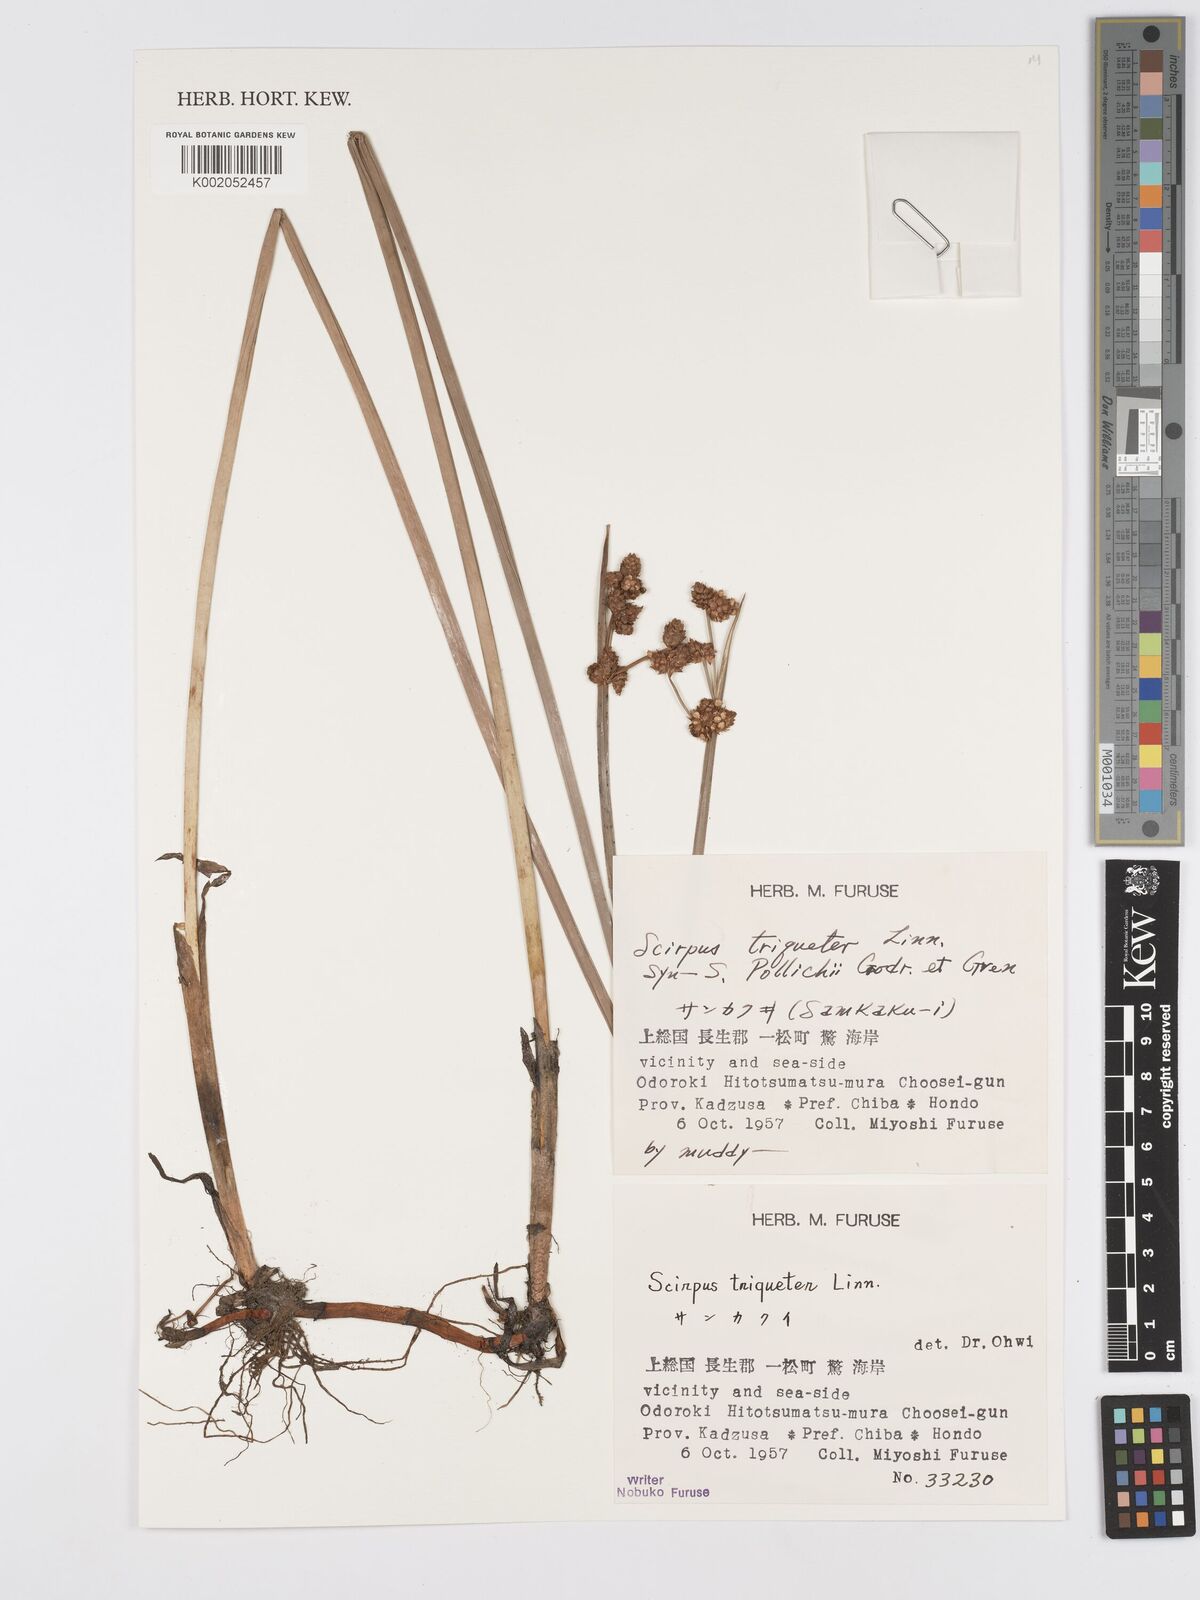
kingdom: Plantae
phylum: Tracheophyta
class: Liliopsida
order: Poales
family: Cyperaceae
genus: Schoenoplectus
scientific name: Schoenoplectus triqueter
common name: Triangular club-rush
